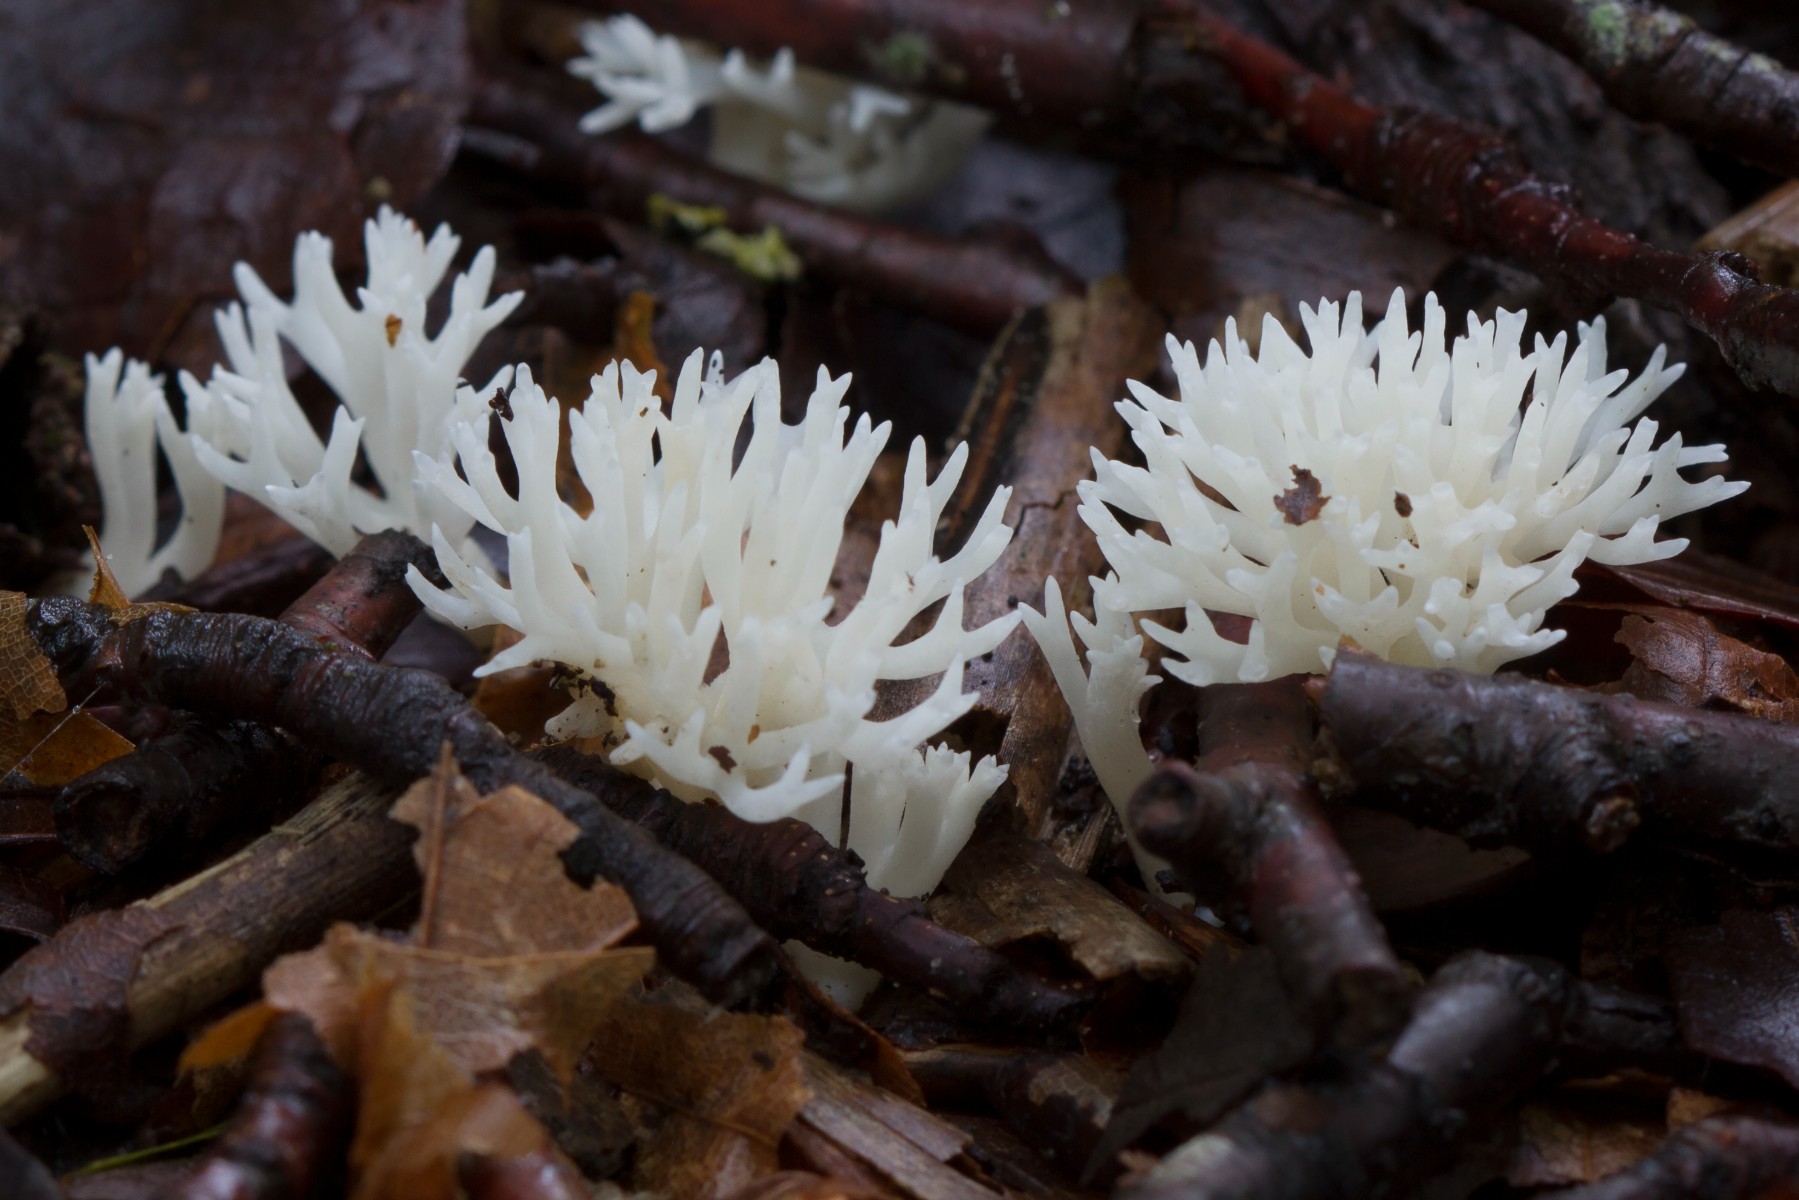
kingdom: Fungi
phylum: Basidiomycota
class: Agaricomycetes
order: Agaricales
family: Clavariaceae
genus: Ramariopsis
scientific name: Ramariopsis bispora
